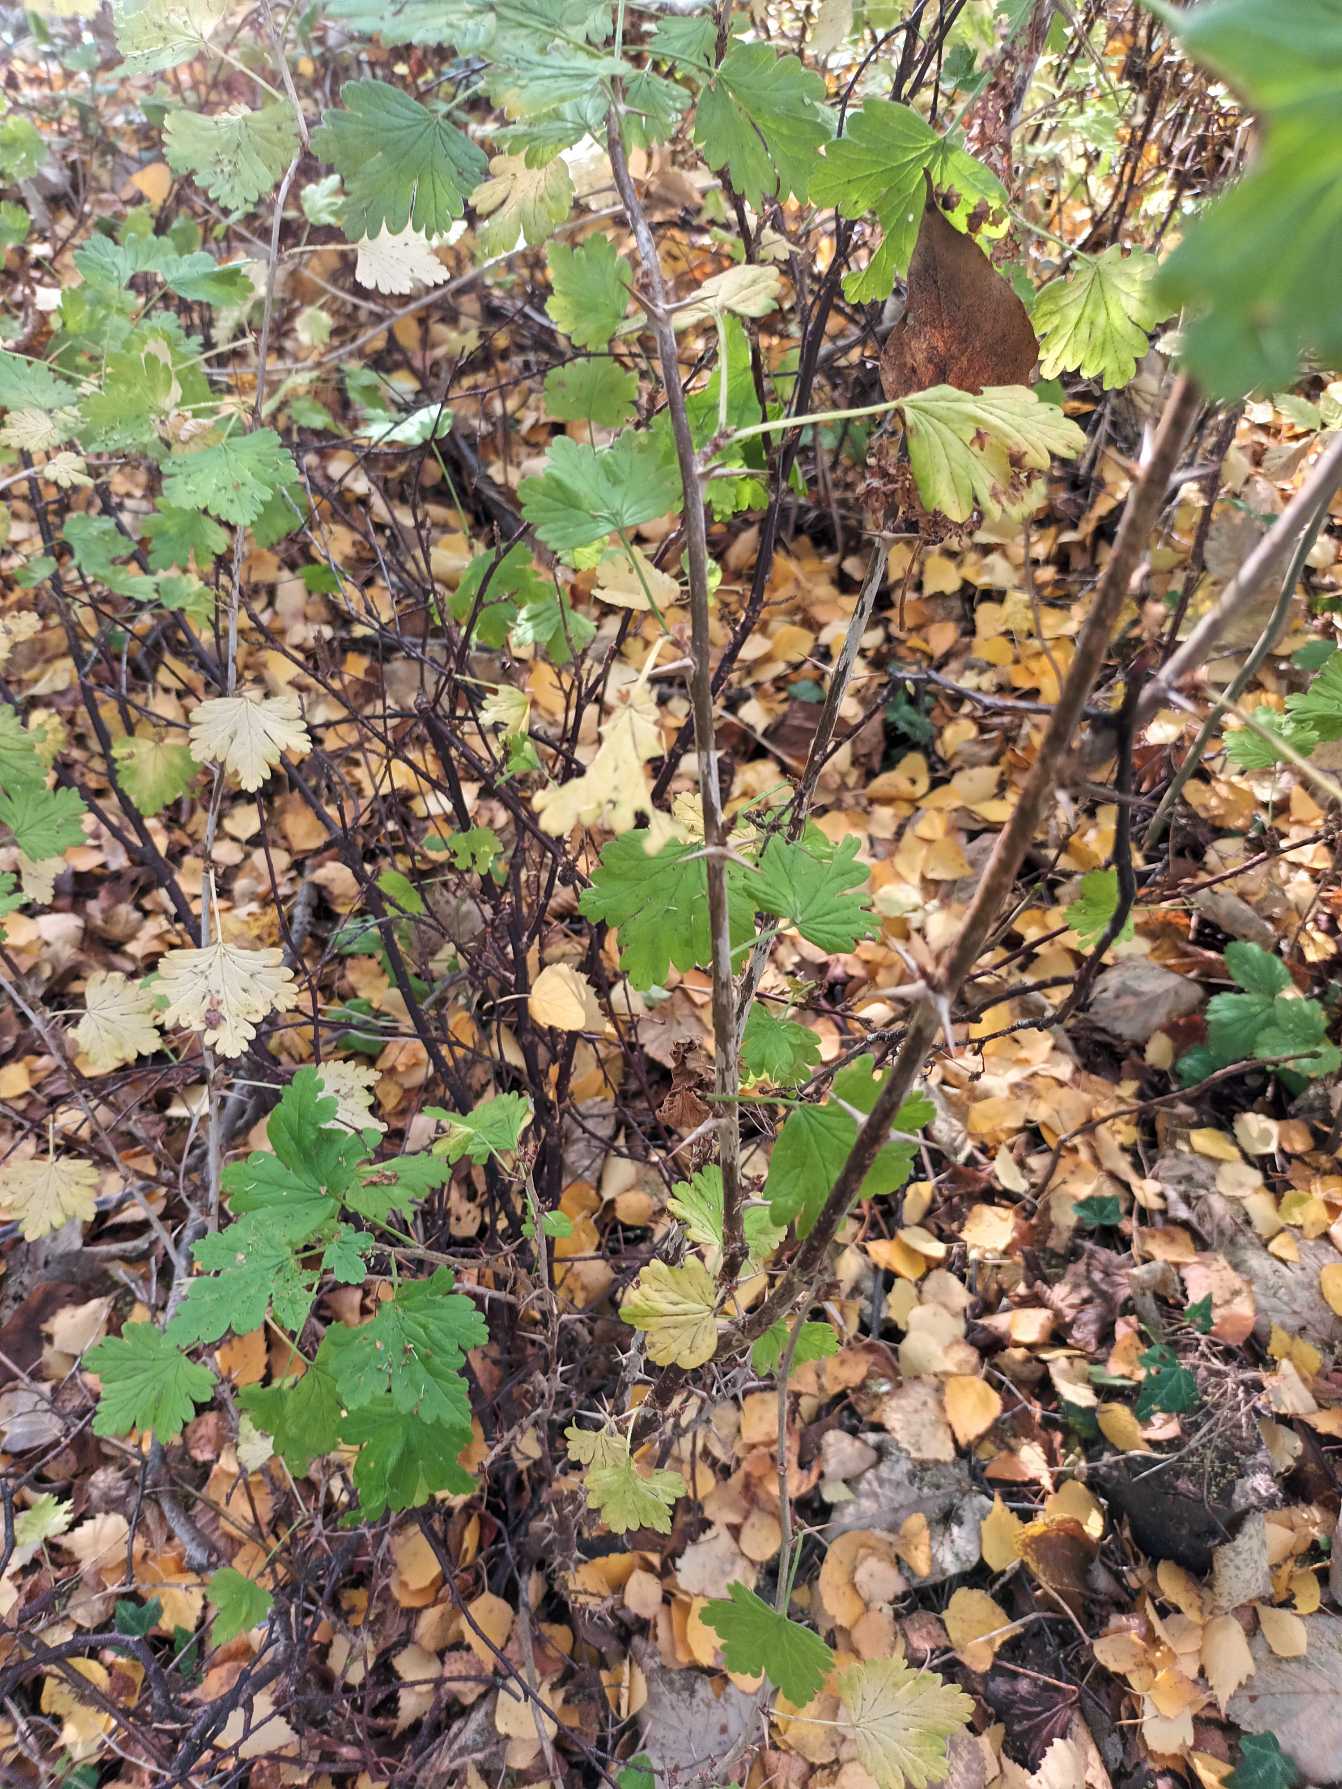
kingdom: Plantae
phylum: Tracheophyta
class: Magnoliopsida
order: Saxifragales
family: Grossulariaceae
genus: Ribes
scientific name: Ribes uva-crispa
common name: Stikkelsbær
